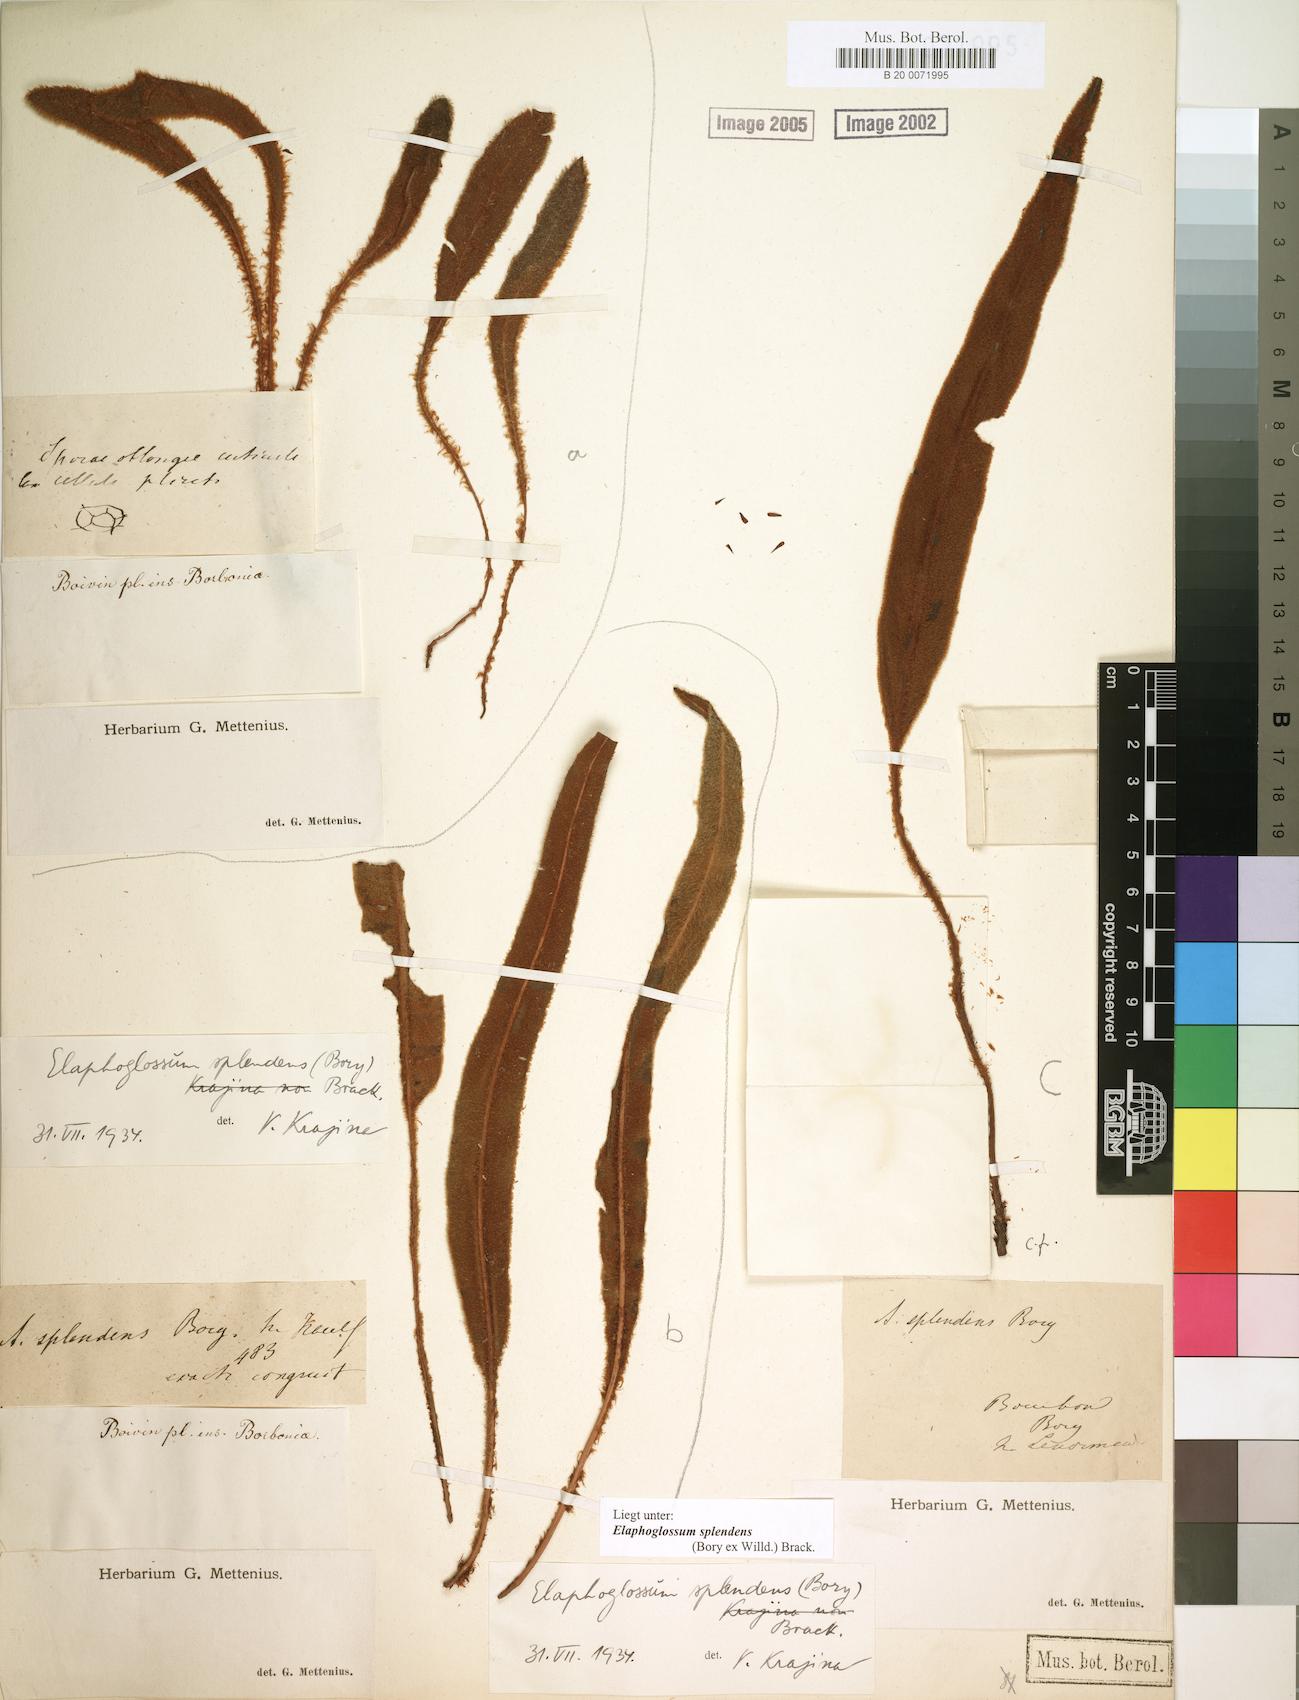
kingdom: Plantae
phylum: Tracheophyta
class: Polypodiopsida
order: Polypodiales
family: Dryopteridaceae
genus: Elaphoglossum
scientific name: Elaphoglossum splendens
